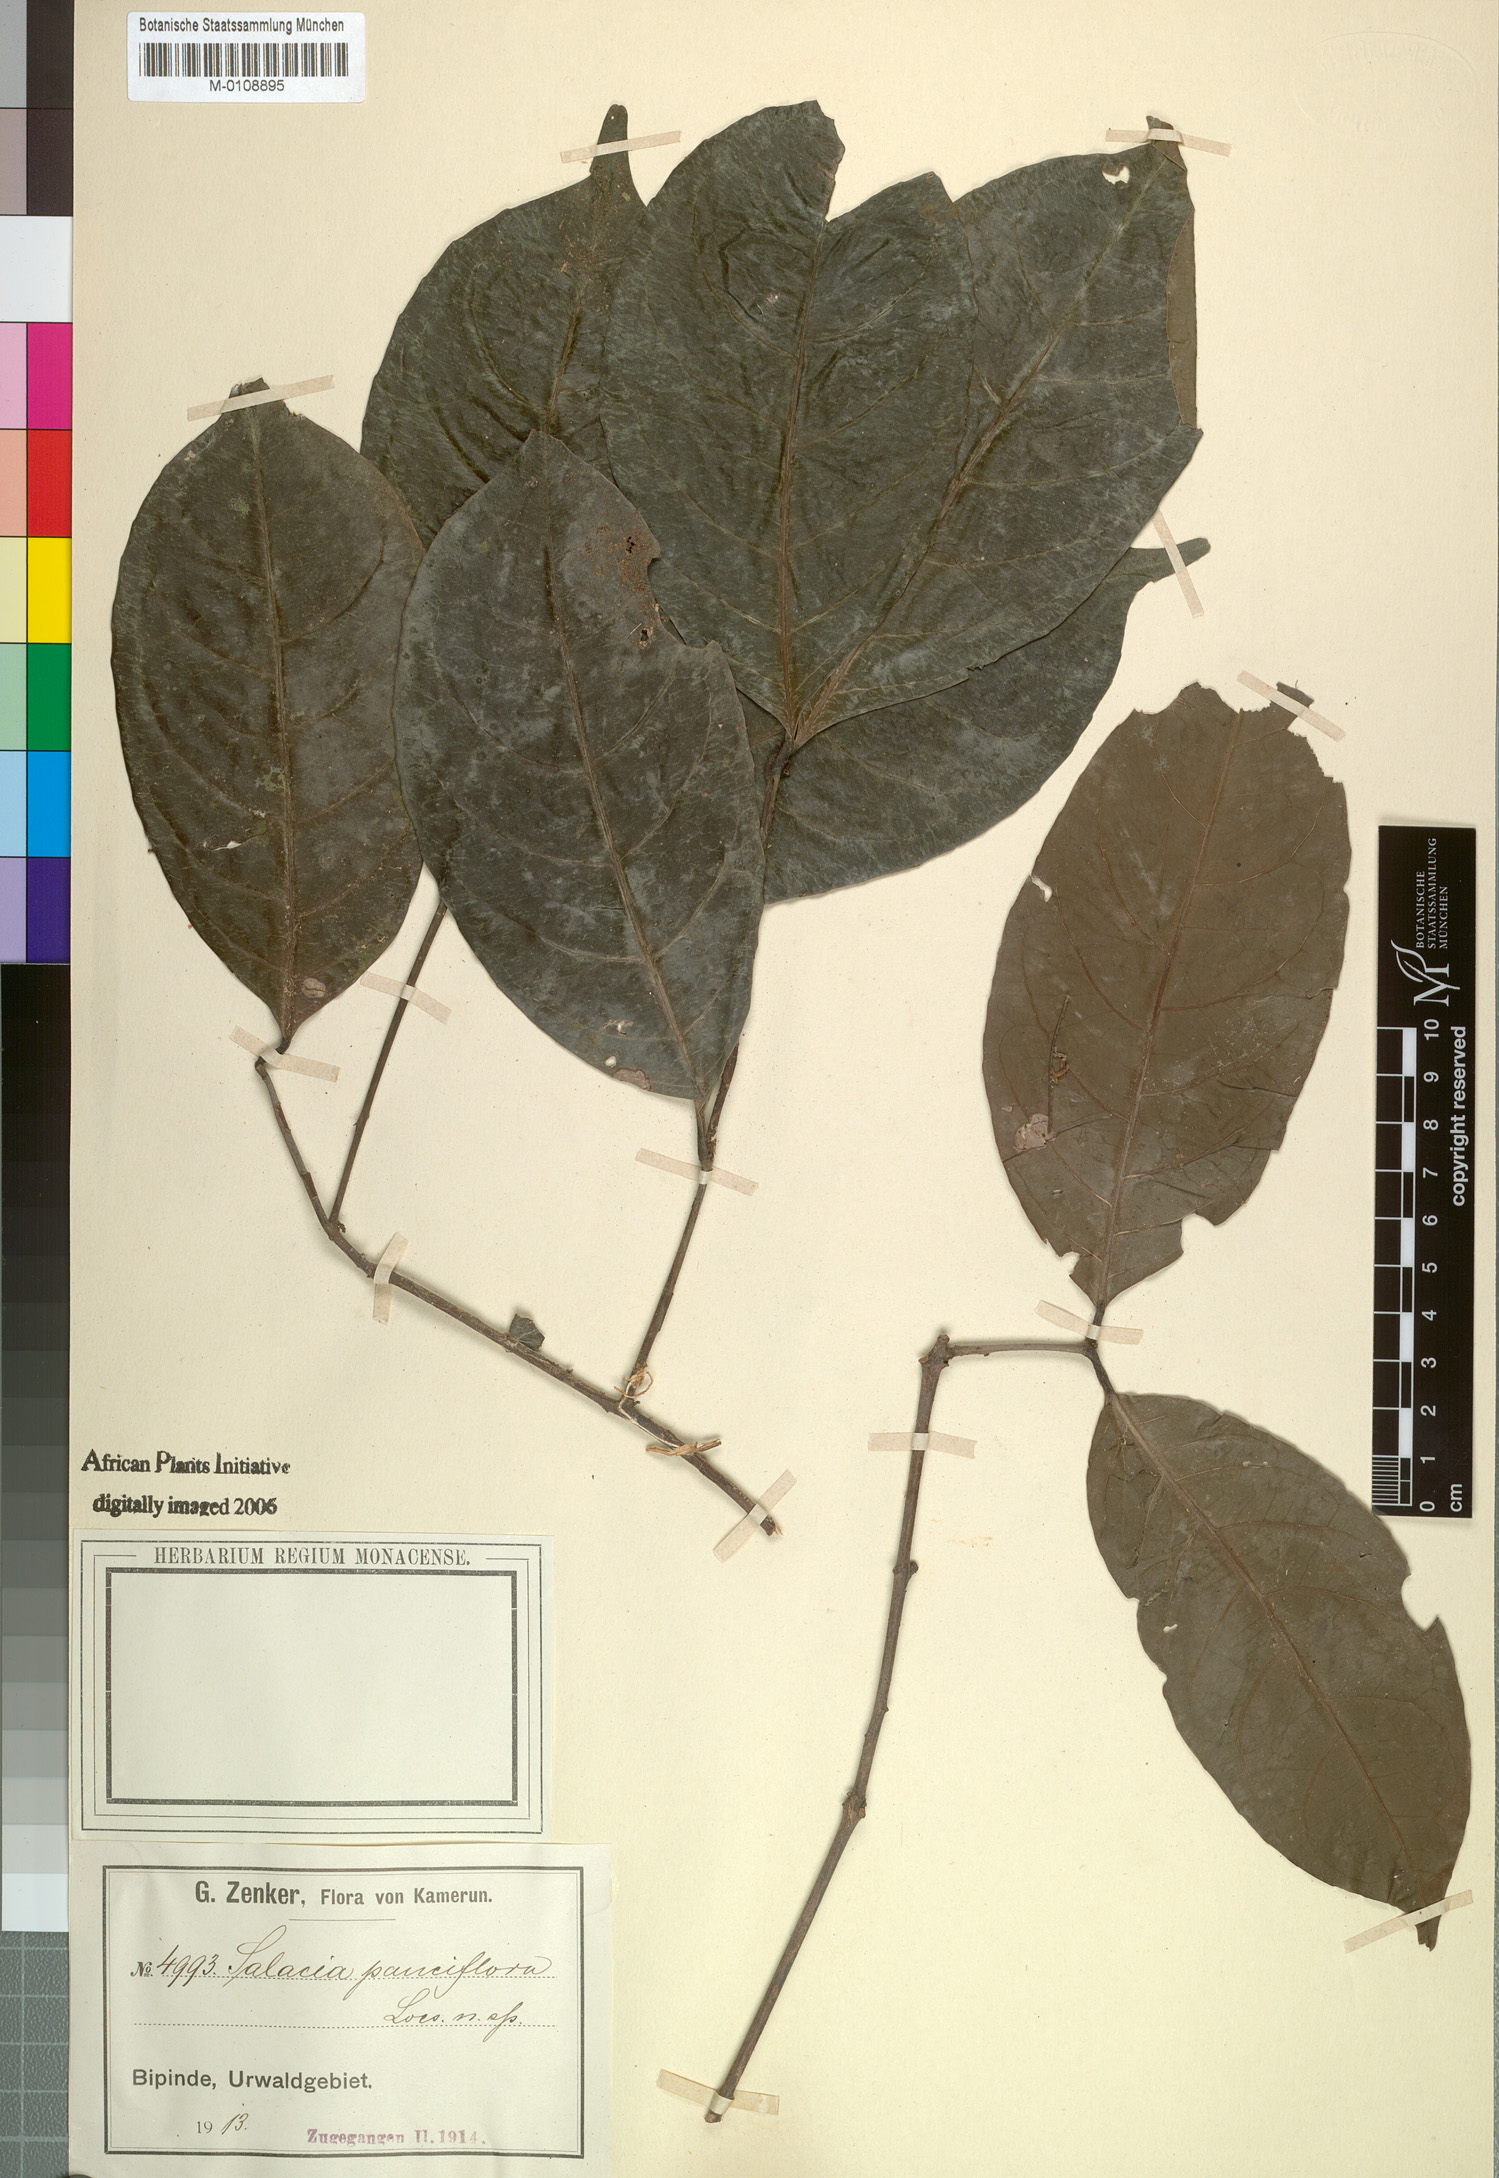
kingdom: Plantae
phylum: Tracheophyta
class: Magnoliopsida
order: Celastrales
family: Celastraceae
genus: Salacia
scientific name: Salacia
